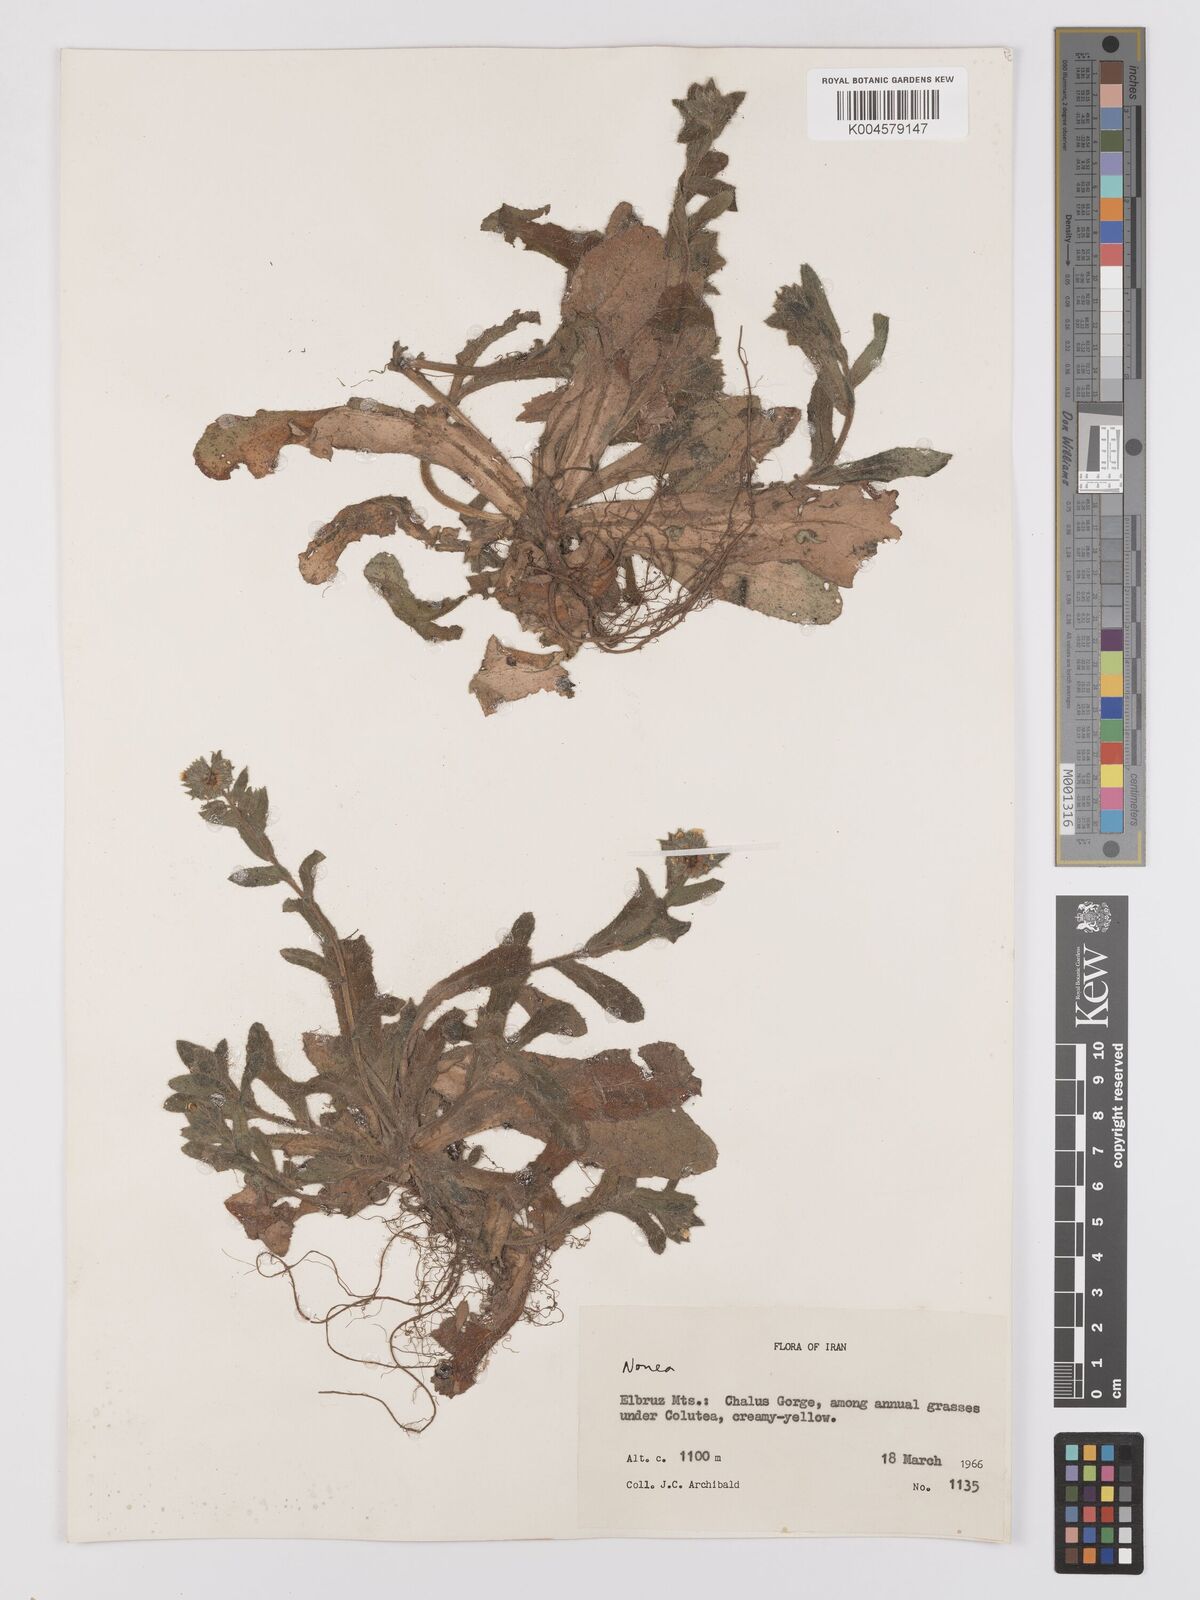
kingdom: Plantae
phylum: Tracheophyta
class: Magnoliopsida
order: Boraginales
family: Boraginaceae
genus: Nonea
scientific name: Nonea
